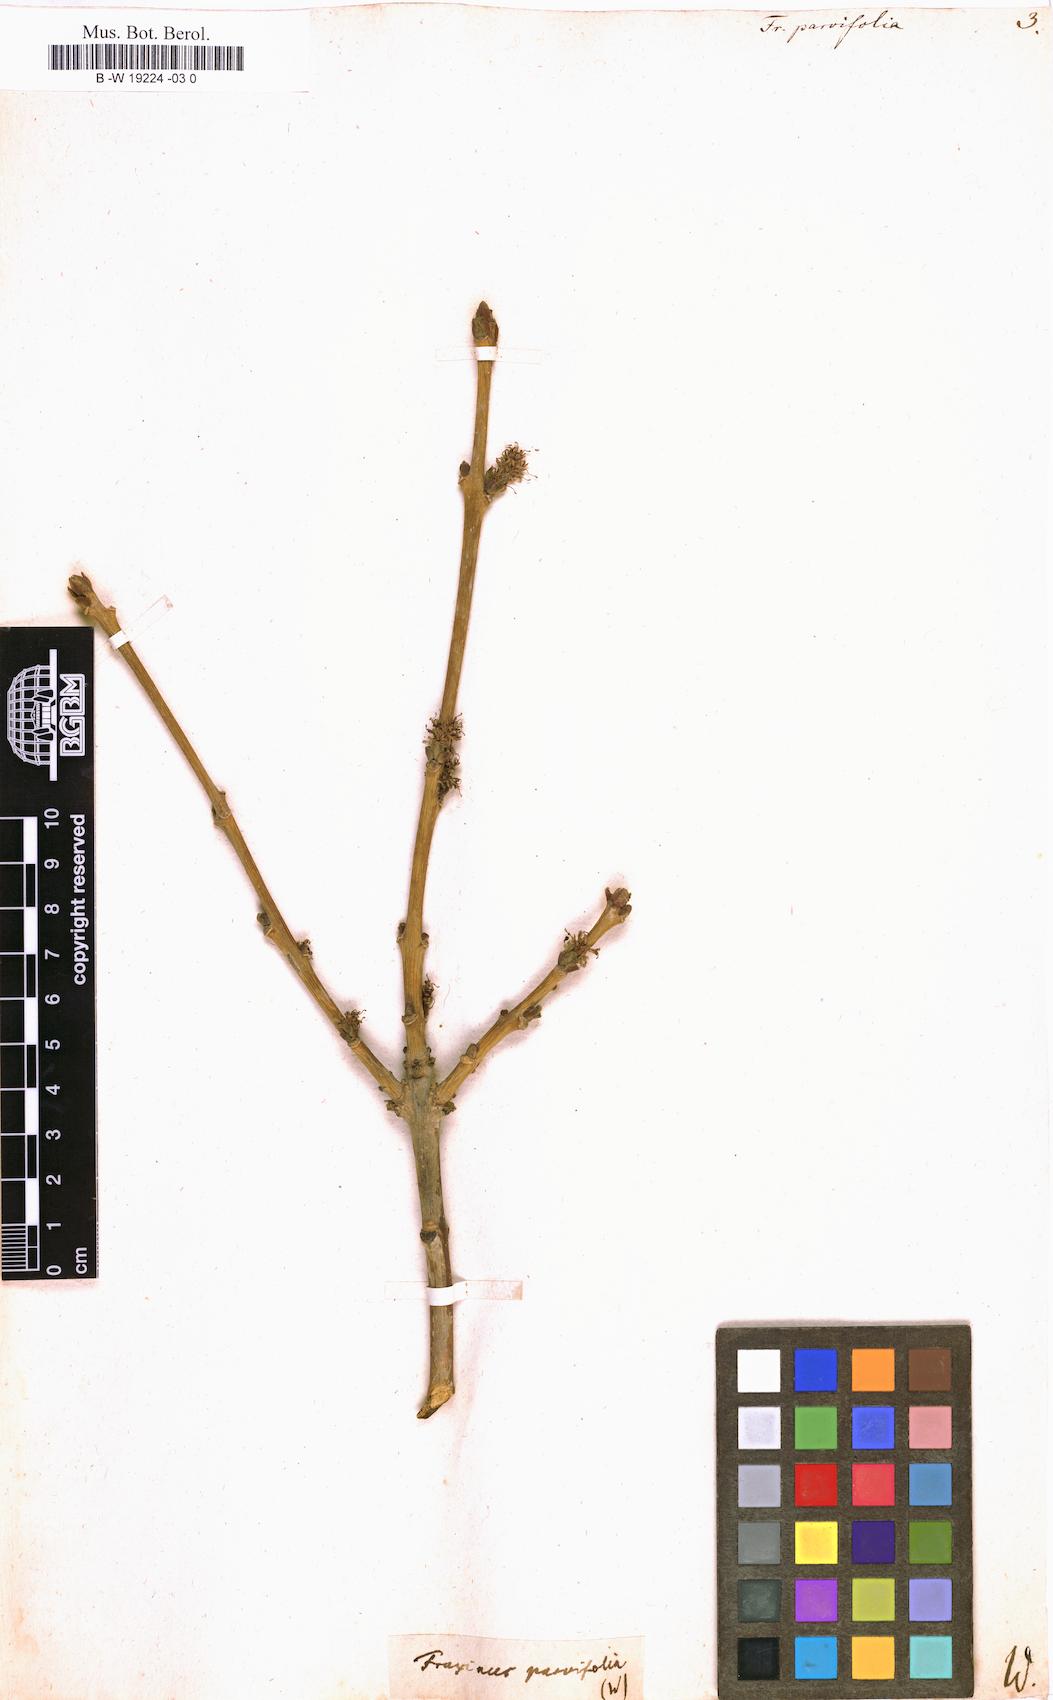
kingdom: Plantae
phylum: Tracheophyta
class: Magnoliopsida
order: Lamiales
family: Oleaceae
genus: Fraxinus
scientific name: Fraxinus parvifolia
